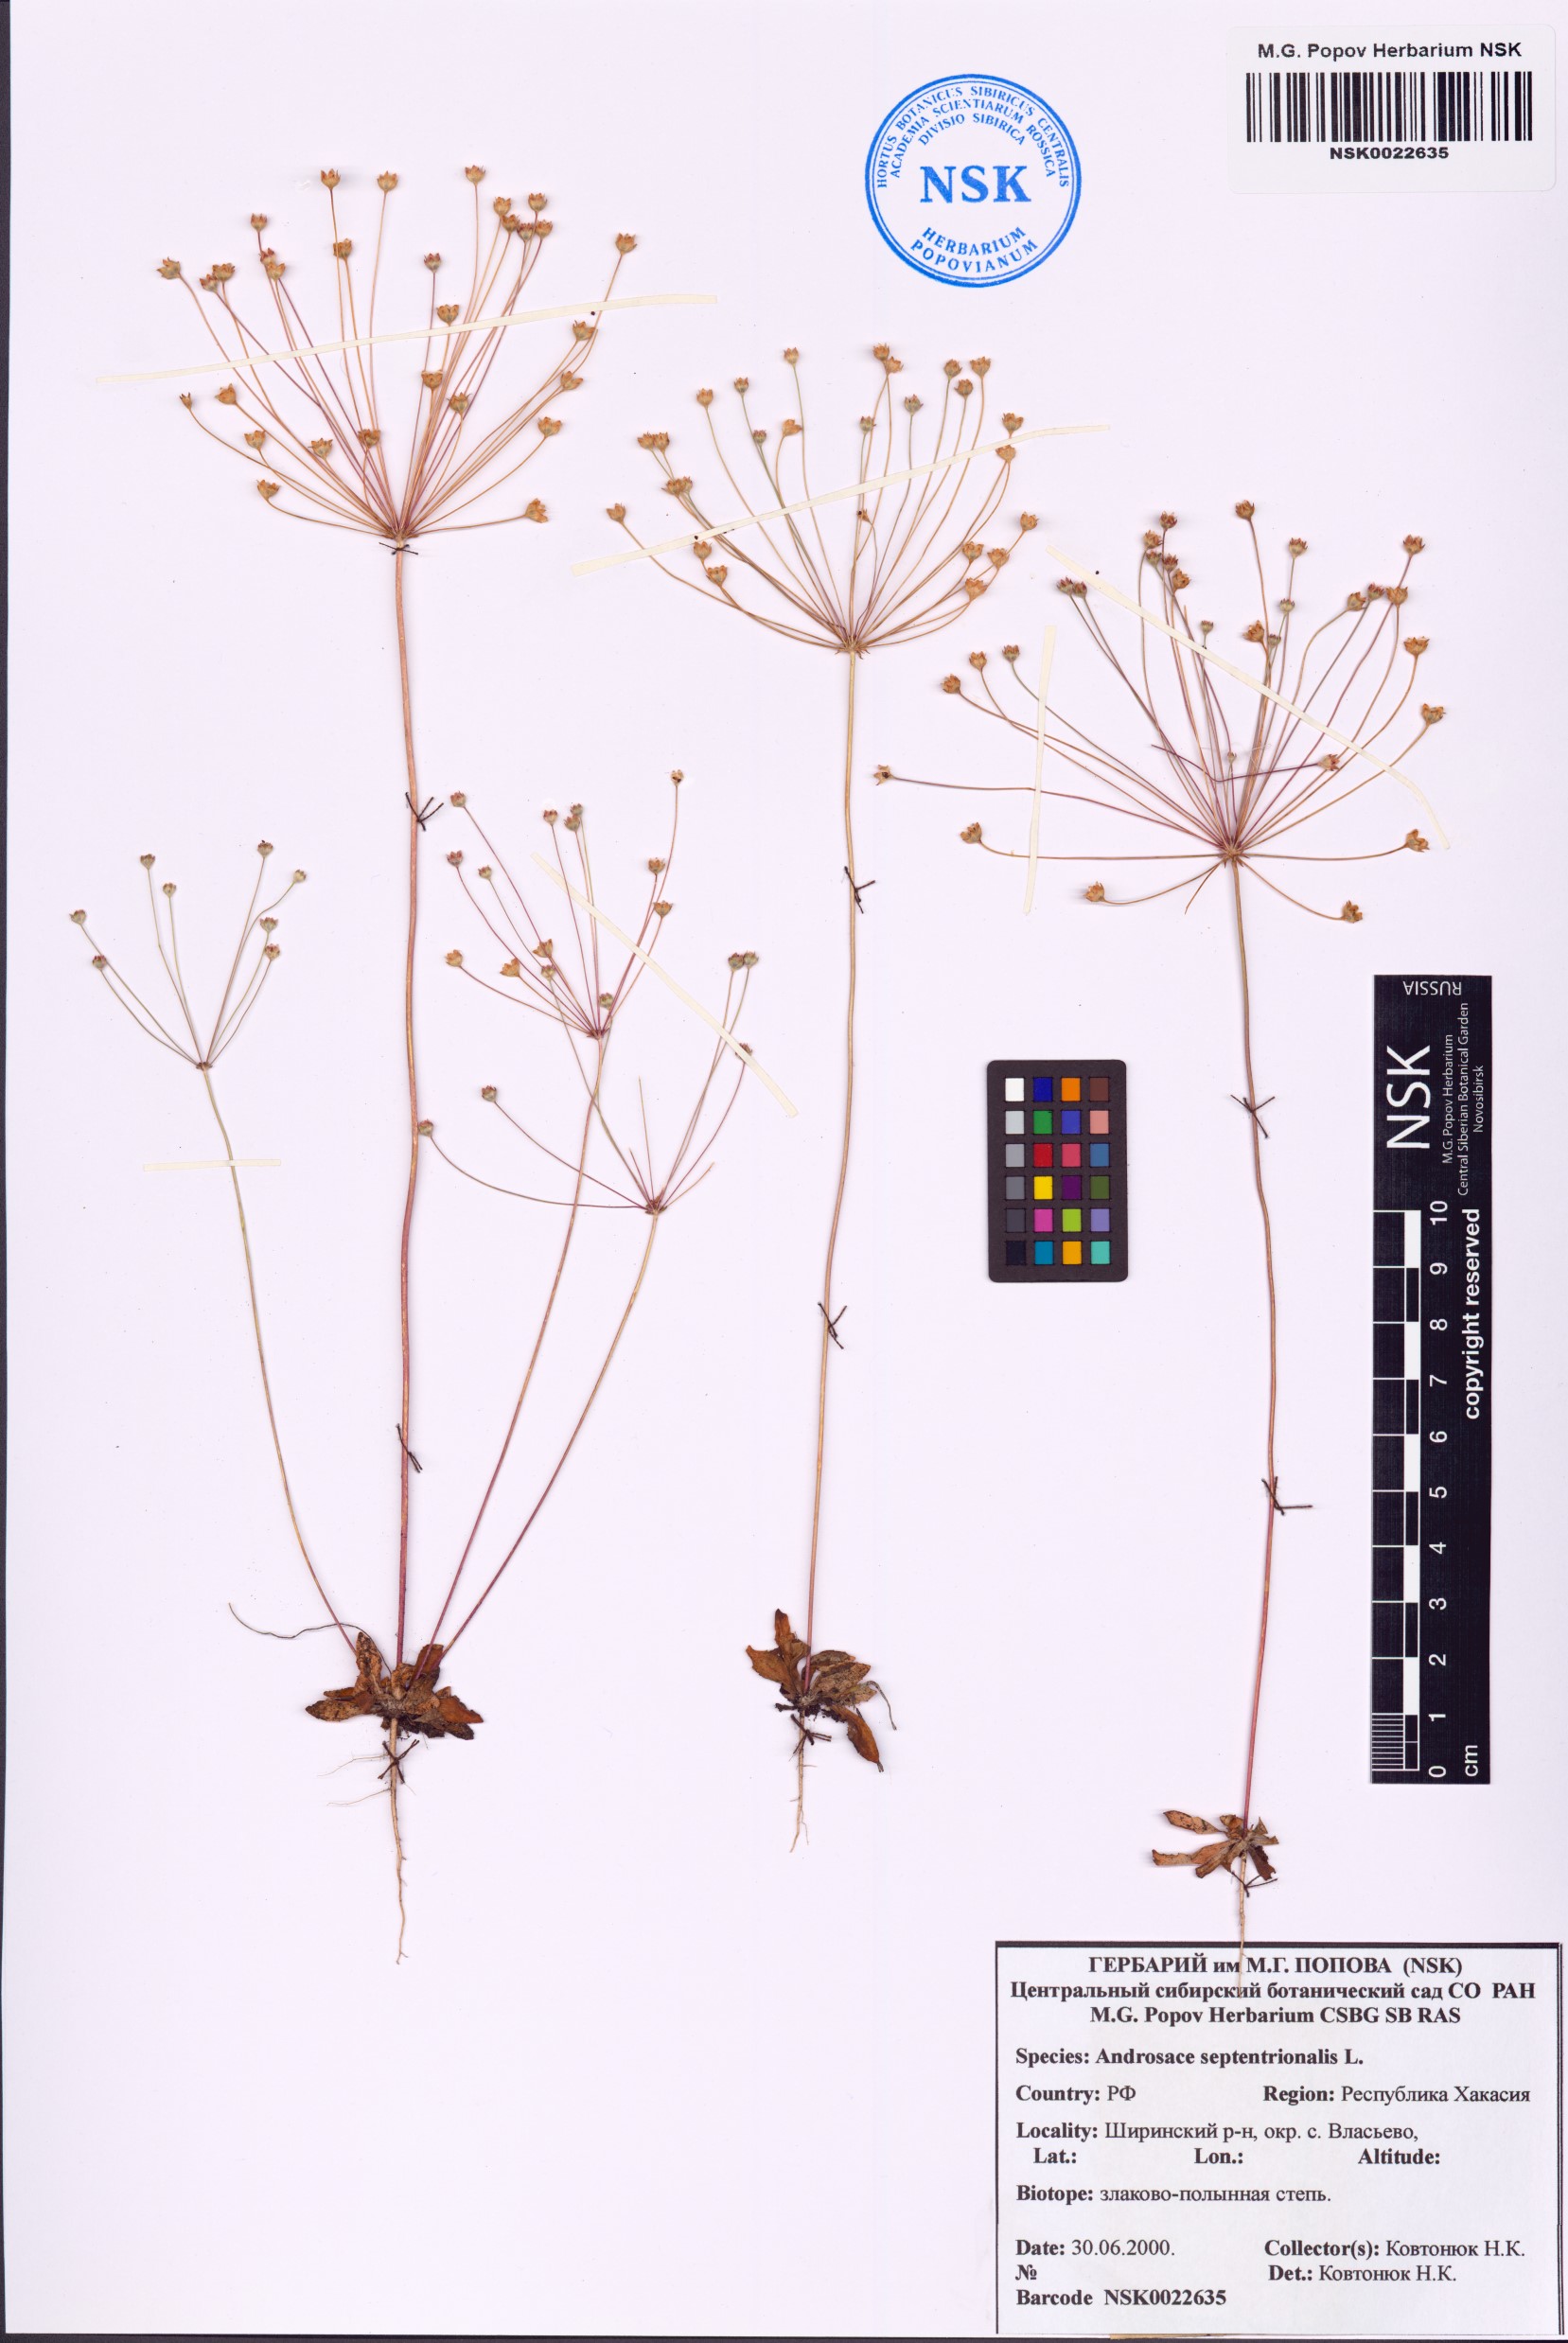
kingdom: Plantae
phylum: Tracheophyta
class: Magnoliopsida
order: Ericales
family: Primulaceae
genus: Androsace
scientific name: Androsace septentrionalis
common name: Hairy northern fairy-candelabra
